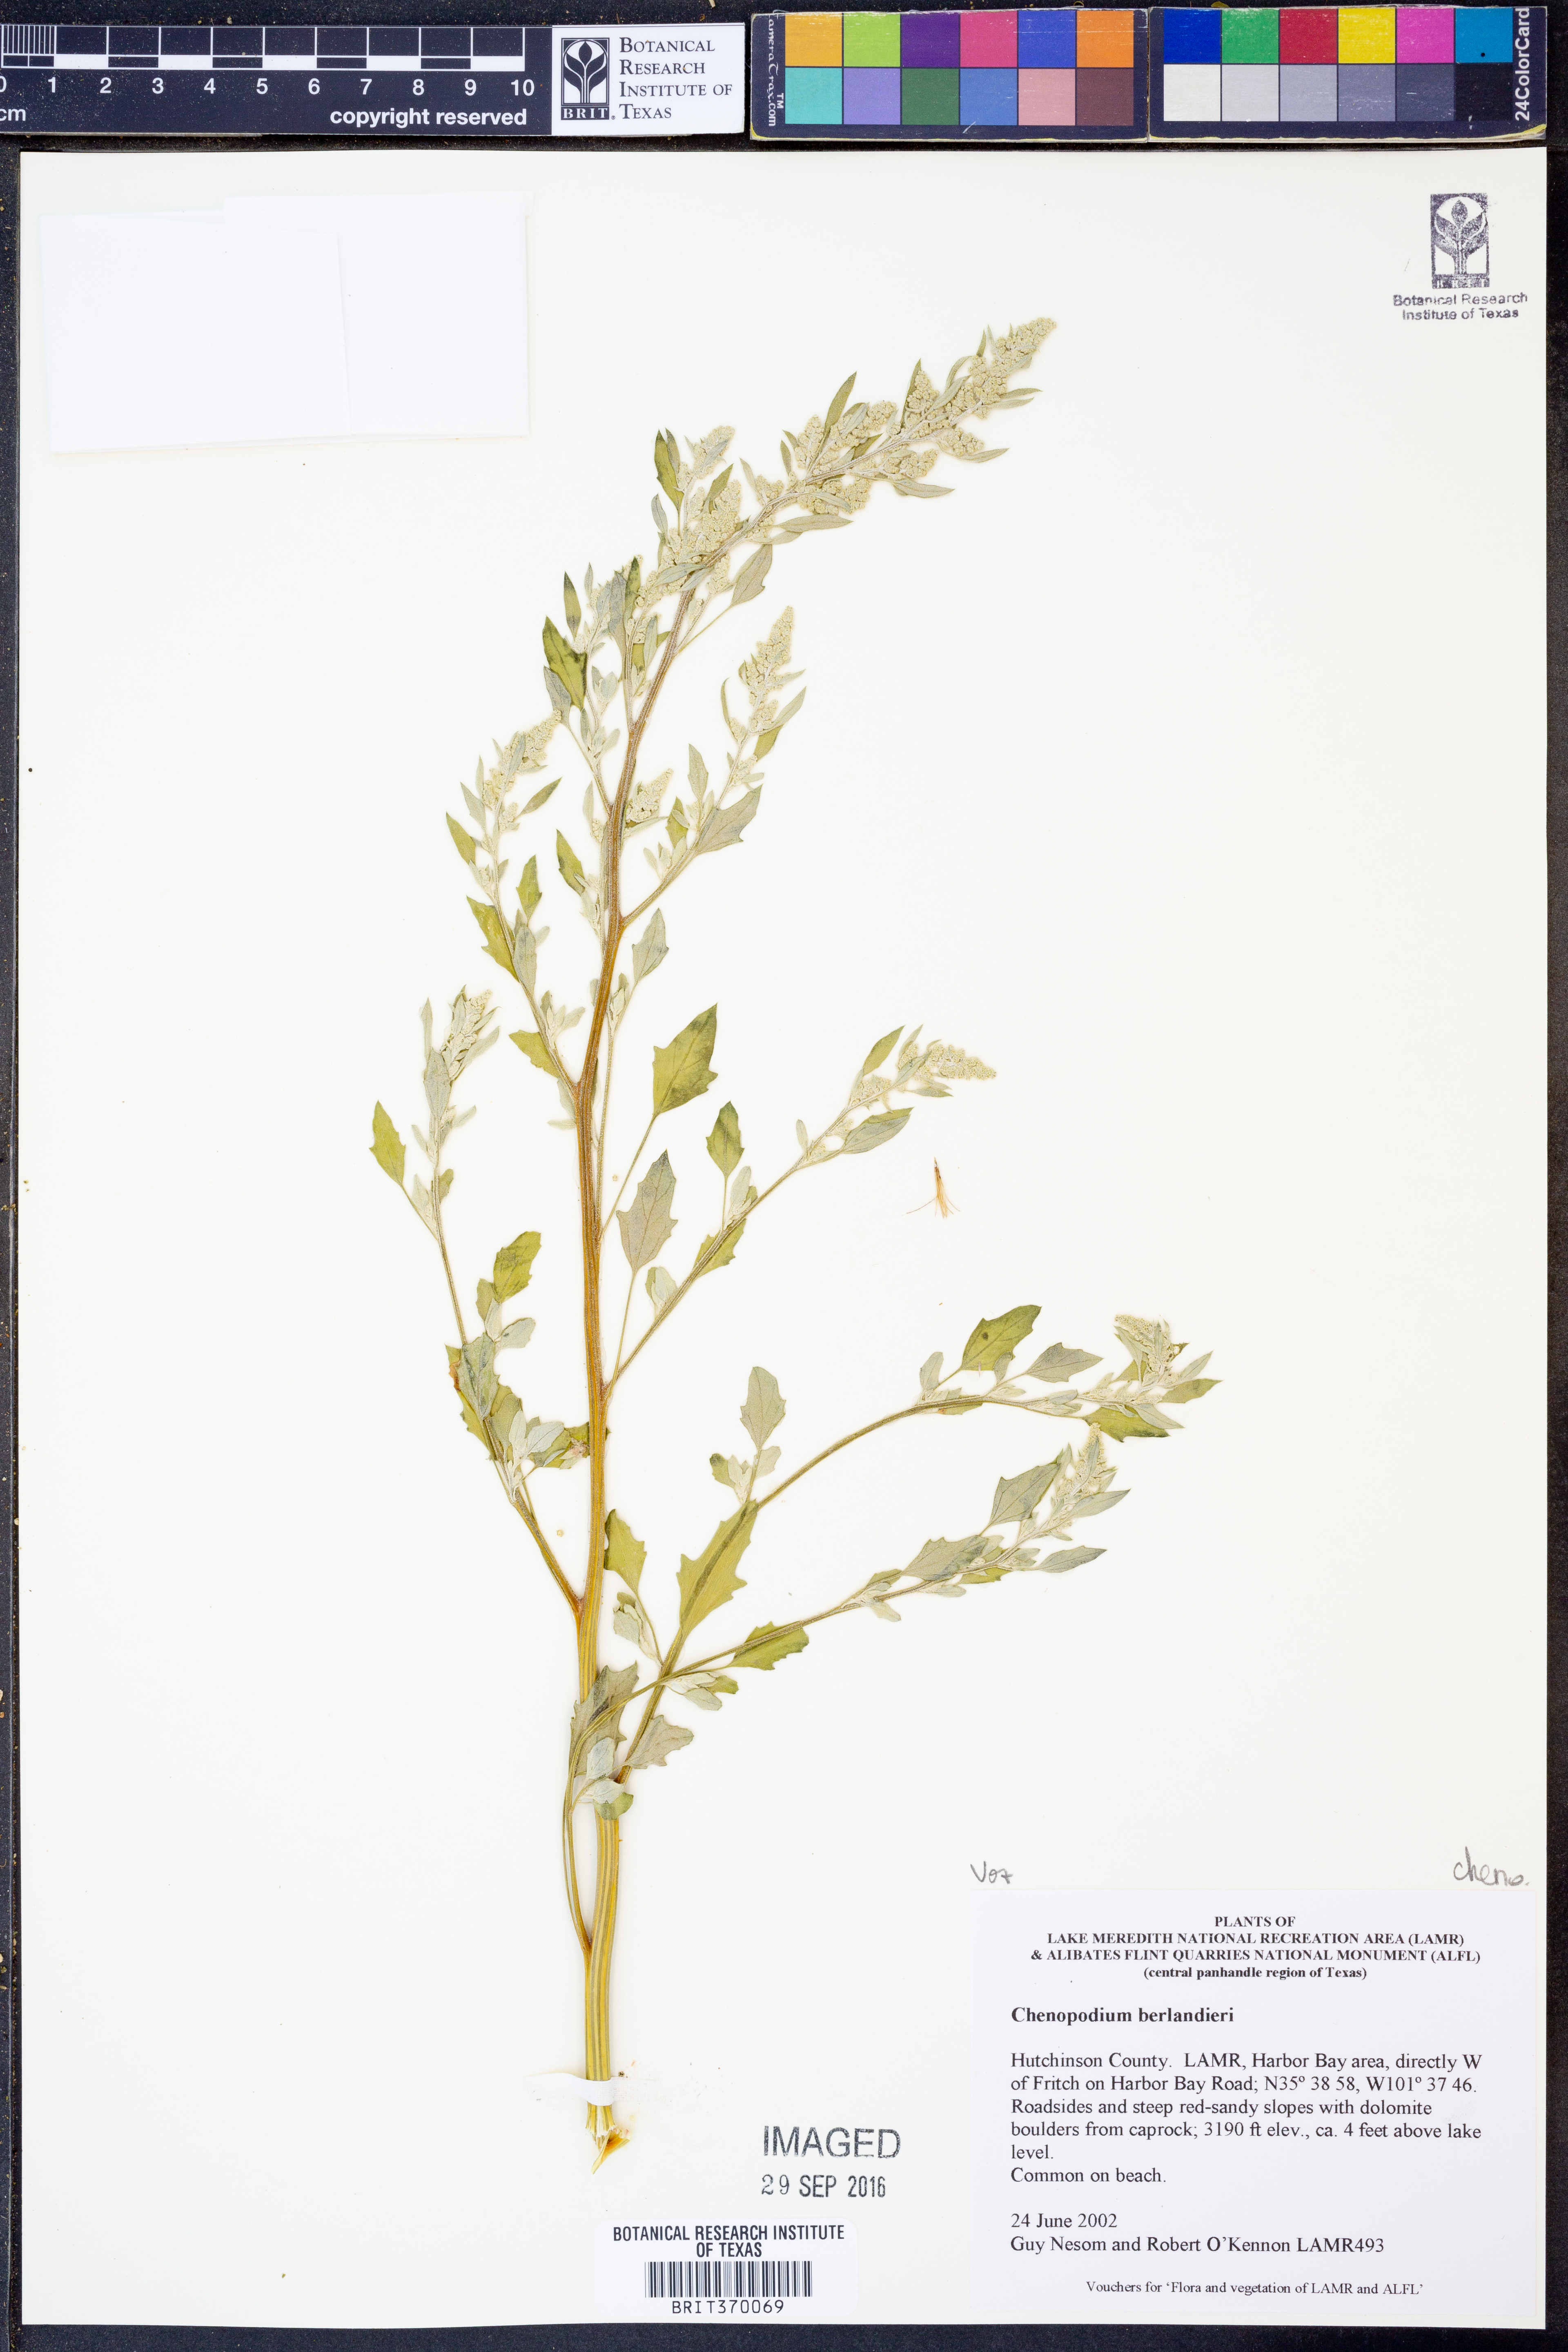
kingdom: Plantae
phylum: Tracheophyta
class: Magnoliopsida
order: Caryophyllales
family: Amaranthaceae
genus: Chenopodium
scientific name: Chenopodium berlandieri
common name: Pit-seed goosefoot
